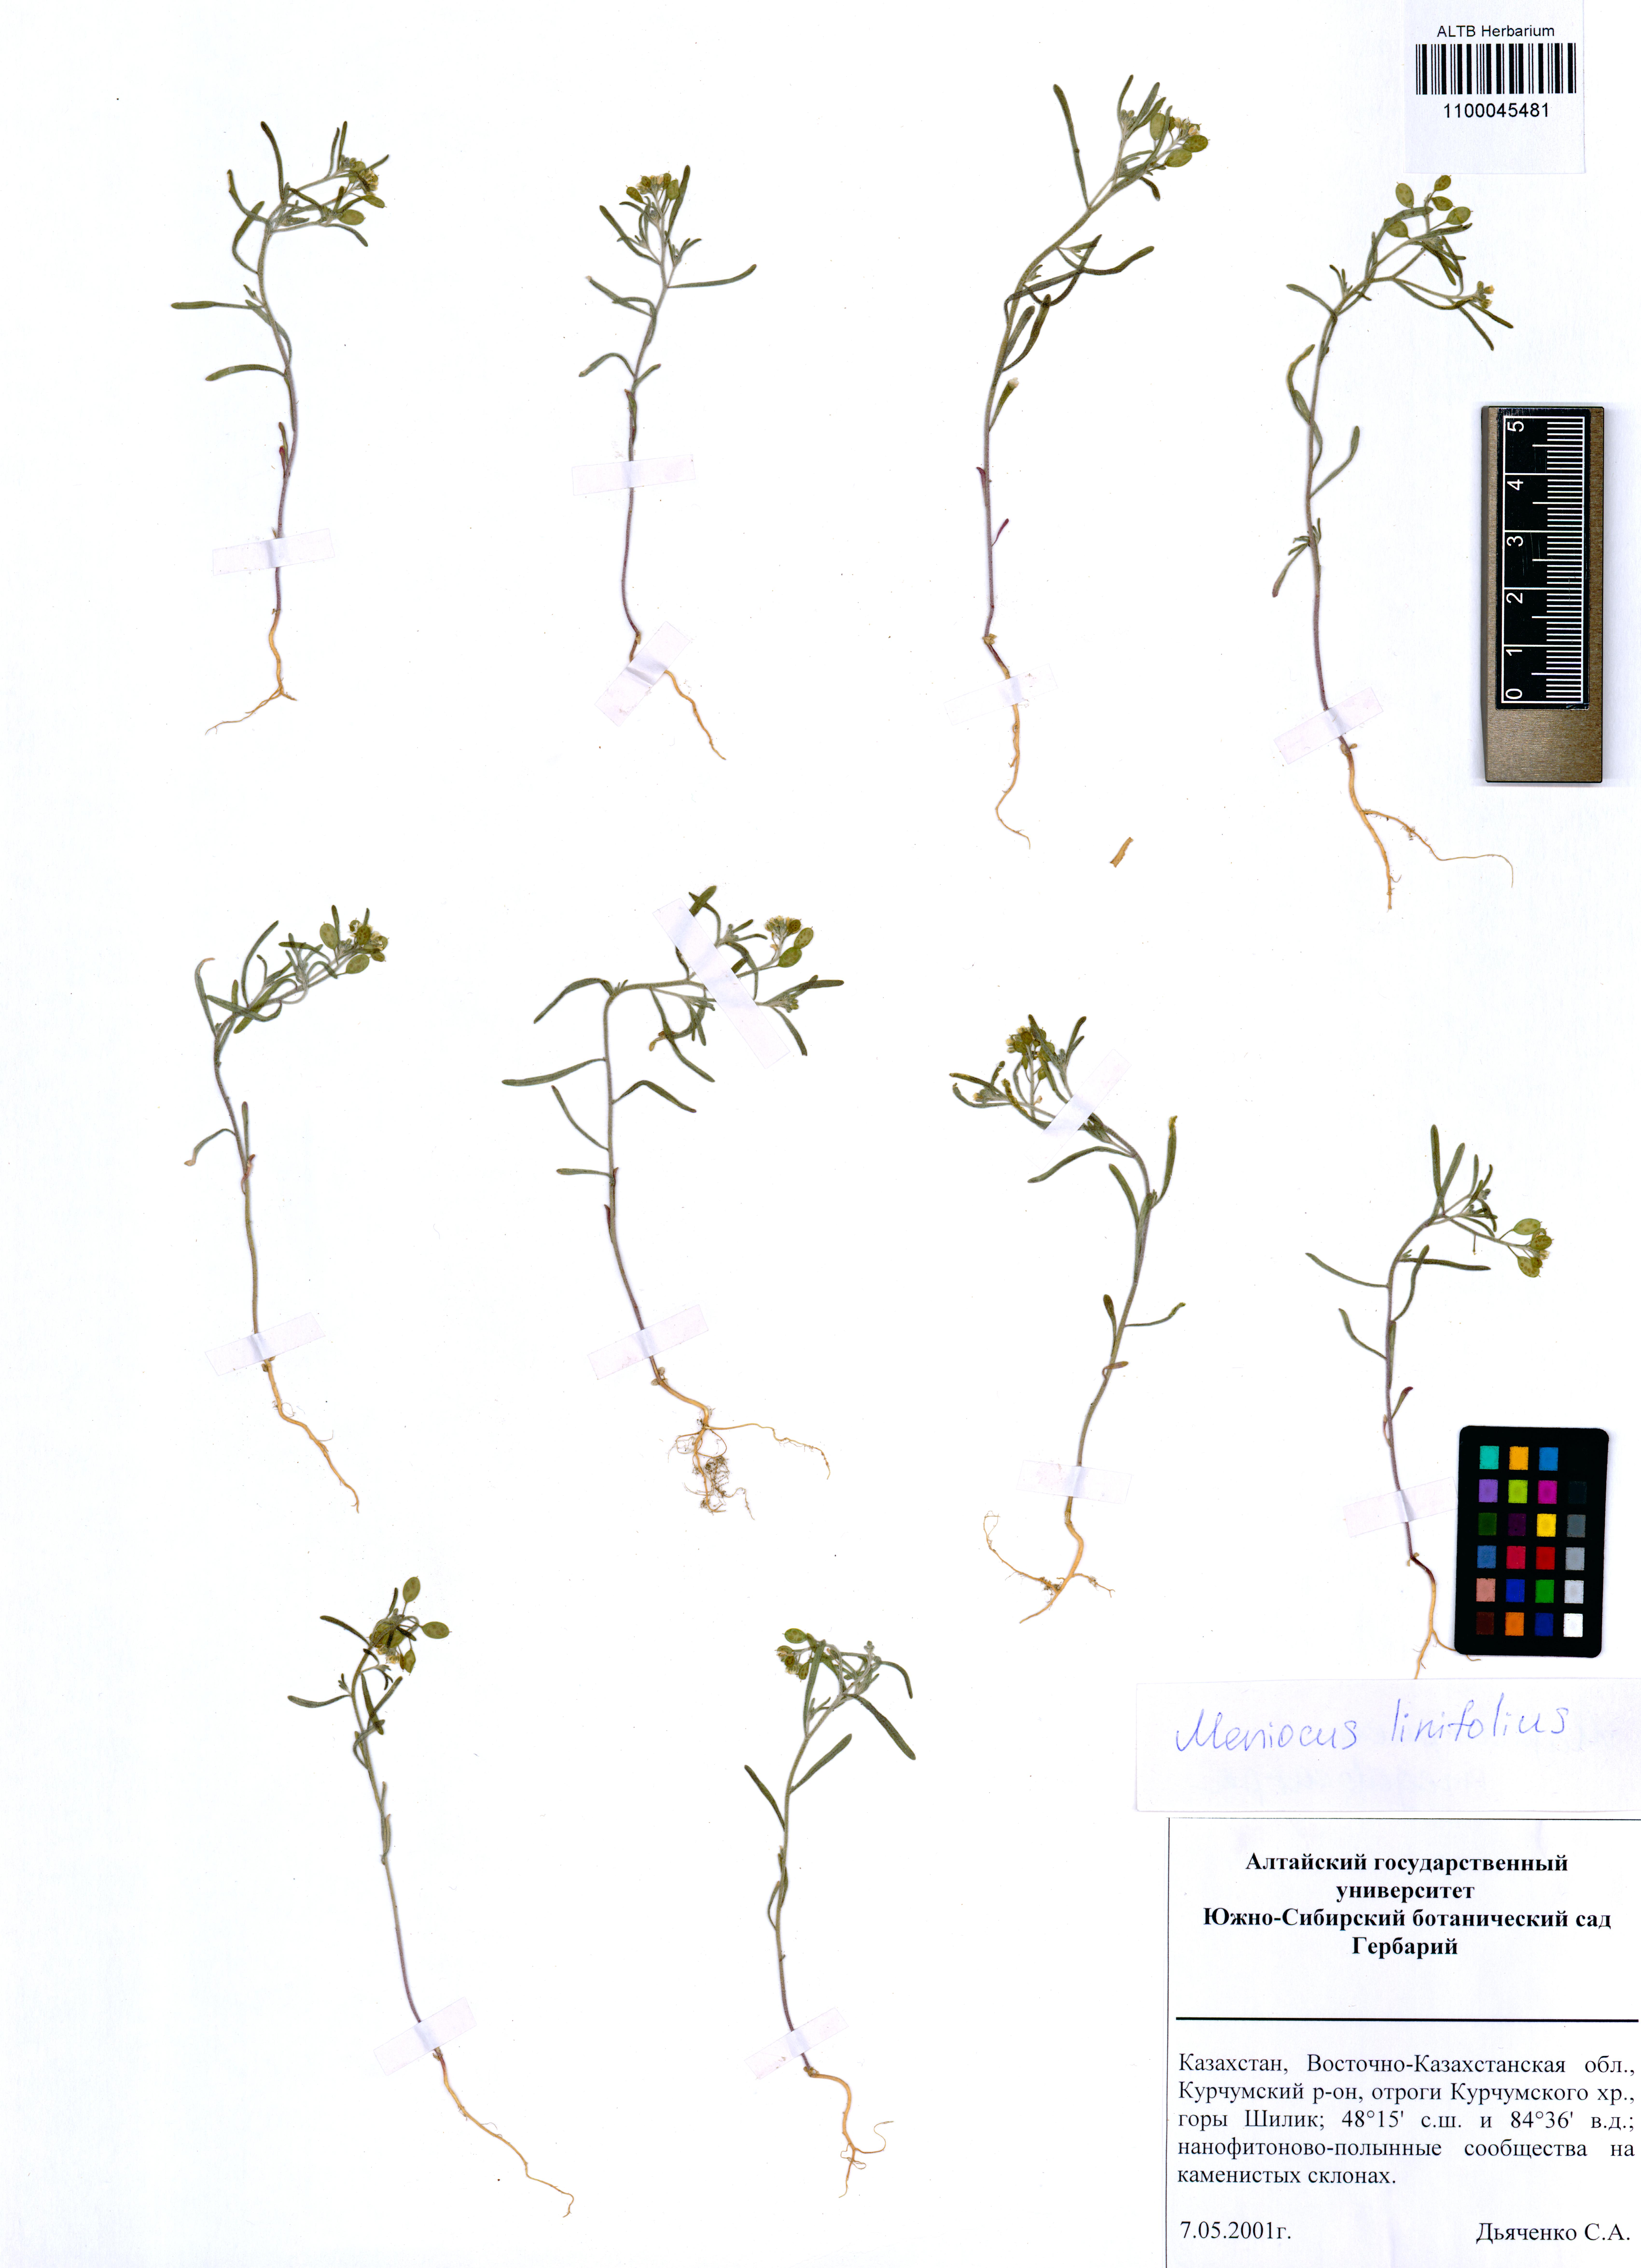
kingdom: Plantae
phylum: Tracheophyta
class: Magnoliopsida
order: Brassicales
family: Brassicaceae
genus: Meniocus
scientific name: Meniocus linifolius
